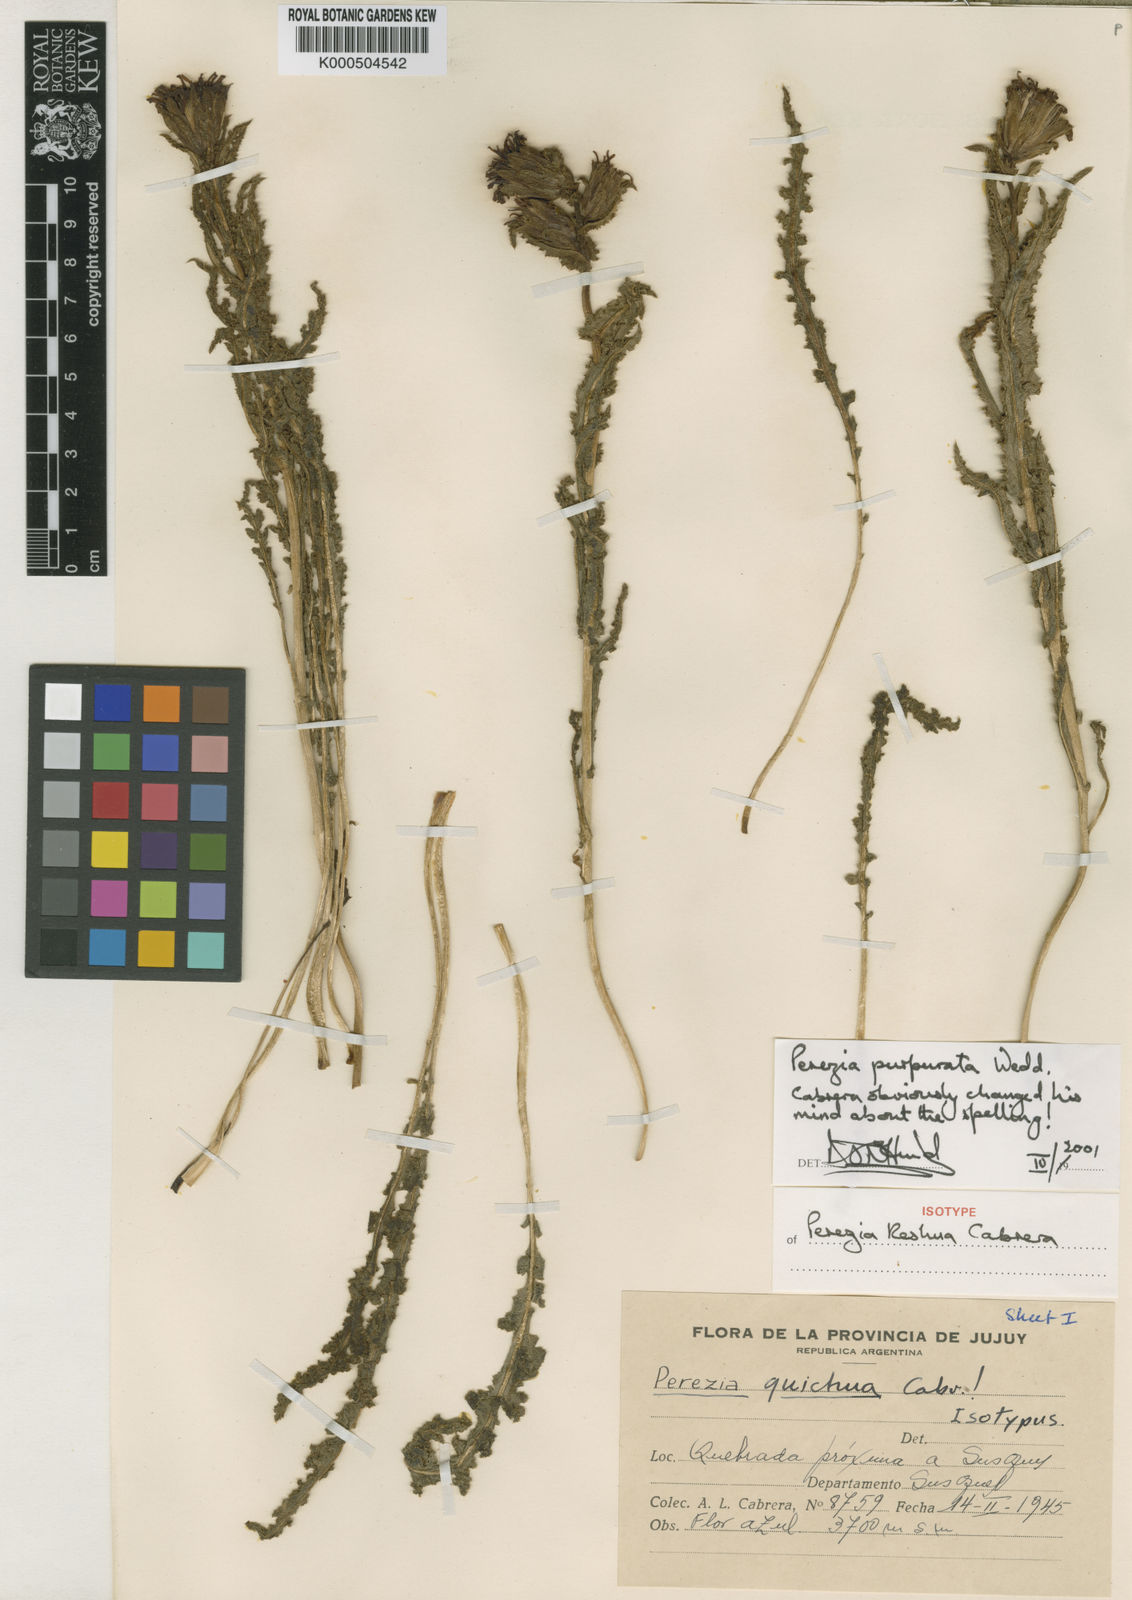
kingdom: Plantae
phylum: Tracheophyta
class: Magnoliopsida
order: Asterales
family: Asteraceae
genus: Perezia
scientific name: Perezia purpurata
